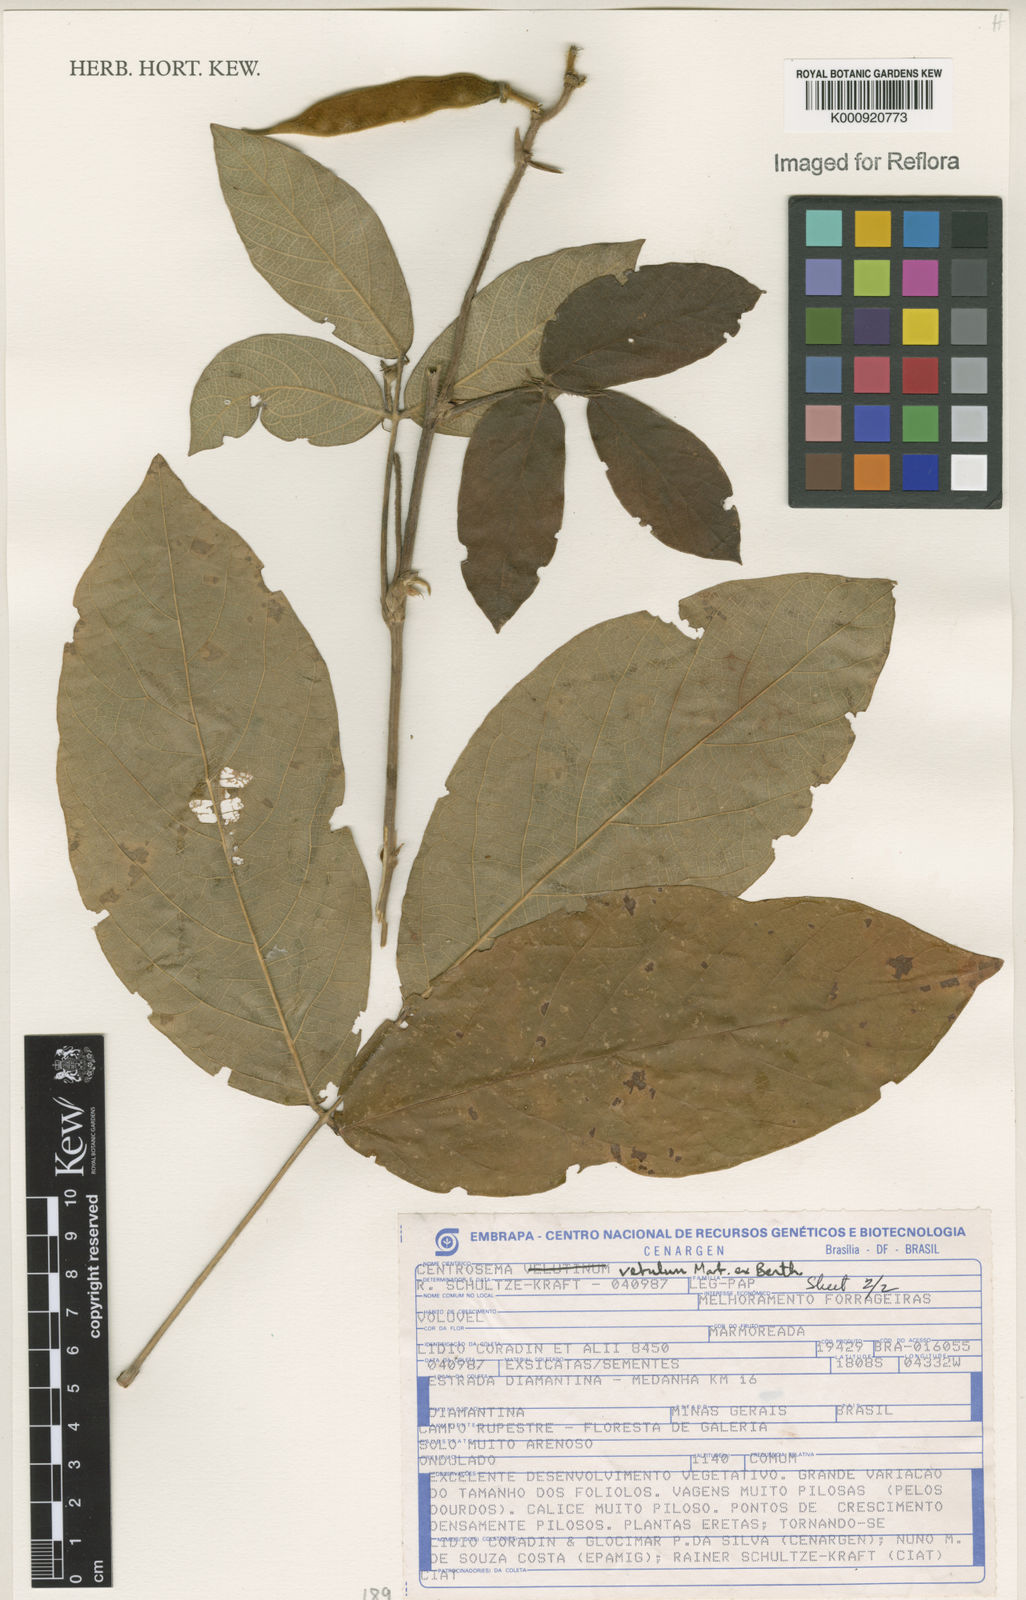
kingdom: Plantae
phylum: Tracheophyta
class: Magnoliopsida
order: Fabales
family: Fabaceae
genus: Centrosema
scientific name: Centrosema vetulum
